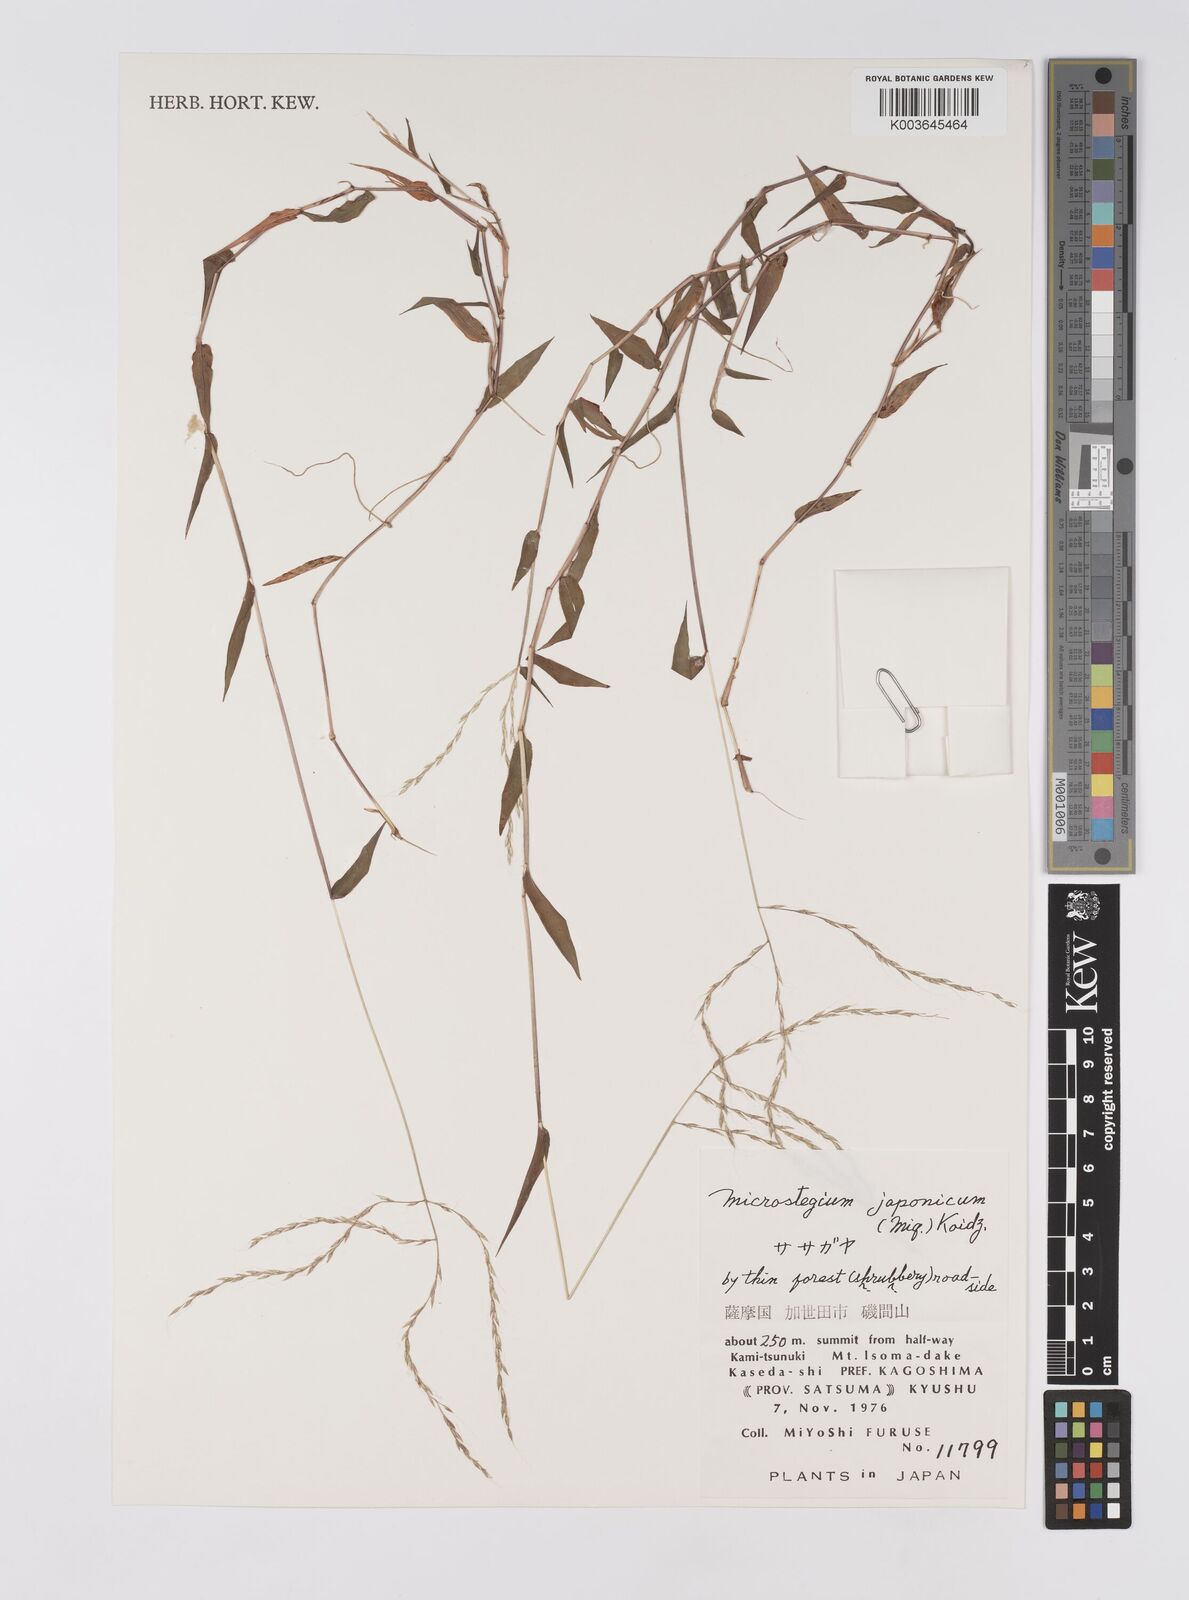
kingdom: Plantae
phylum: Tracheophyta
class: Liliopsida
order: Poales
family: Poaceae
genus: Microstegium
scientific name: Microstegium japonicum
